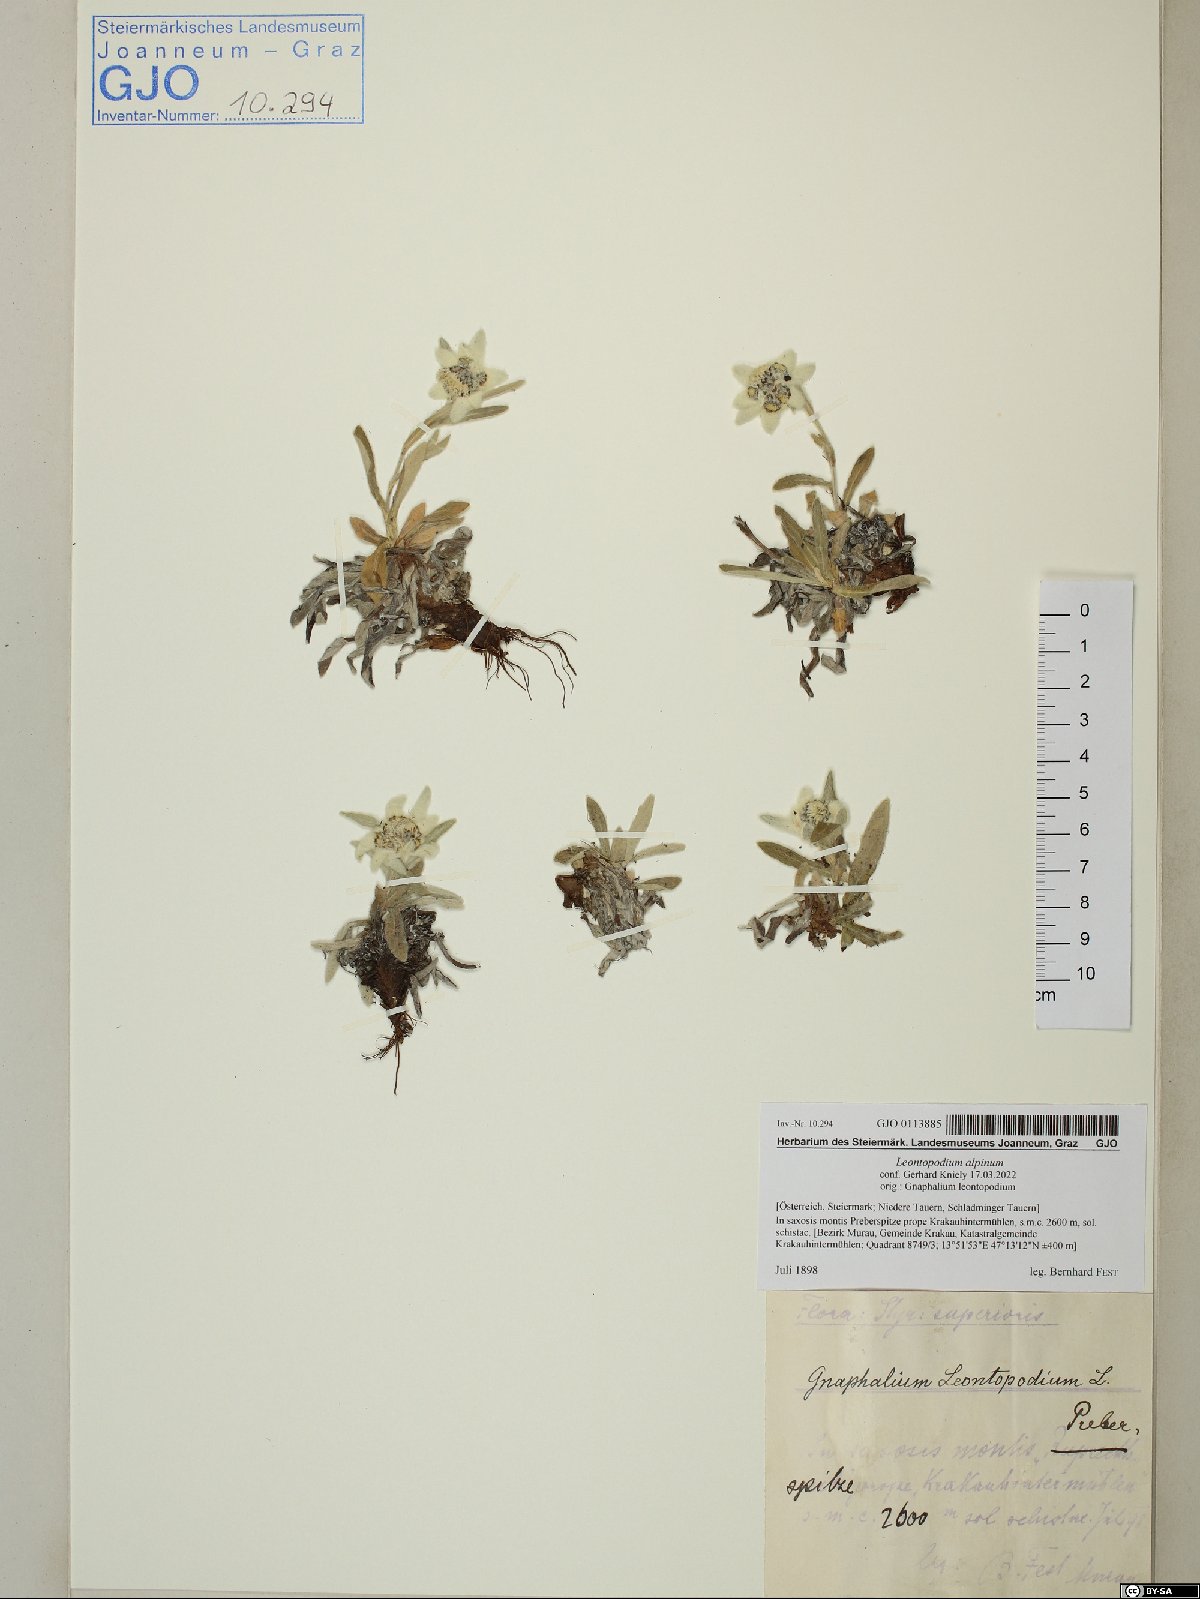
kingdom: Plantae
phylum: Tracheophyta
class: Magnoliopsida
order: Asterales
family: Asteraceae
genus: Leontopodium
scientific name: Leontopodium nivale
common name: Edelweiss
